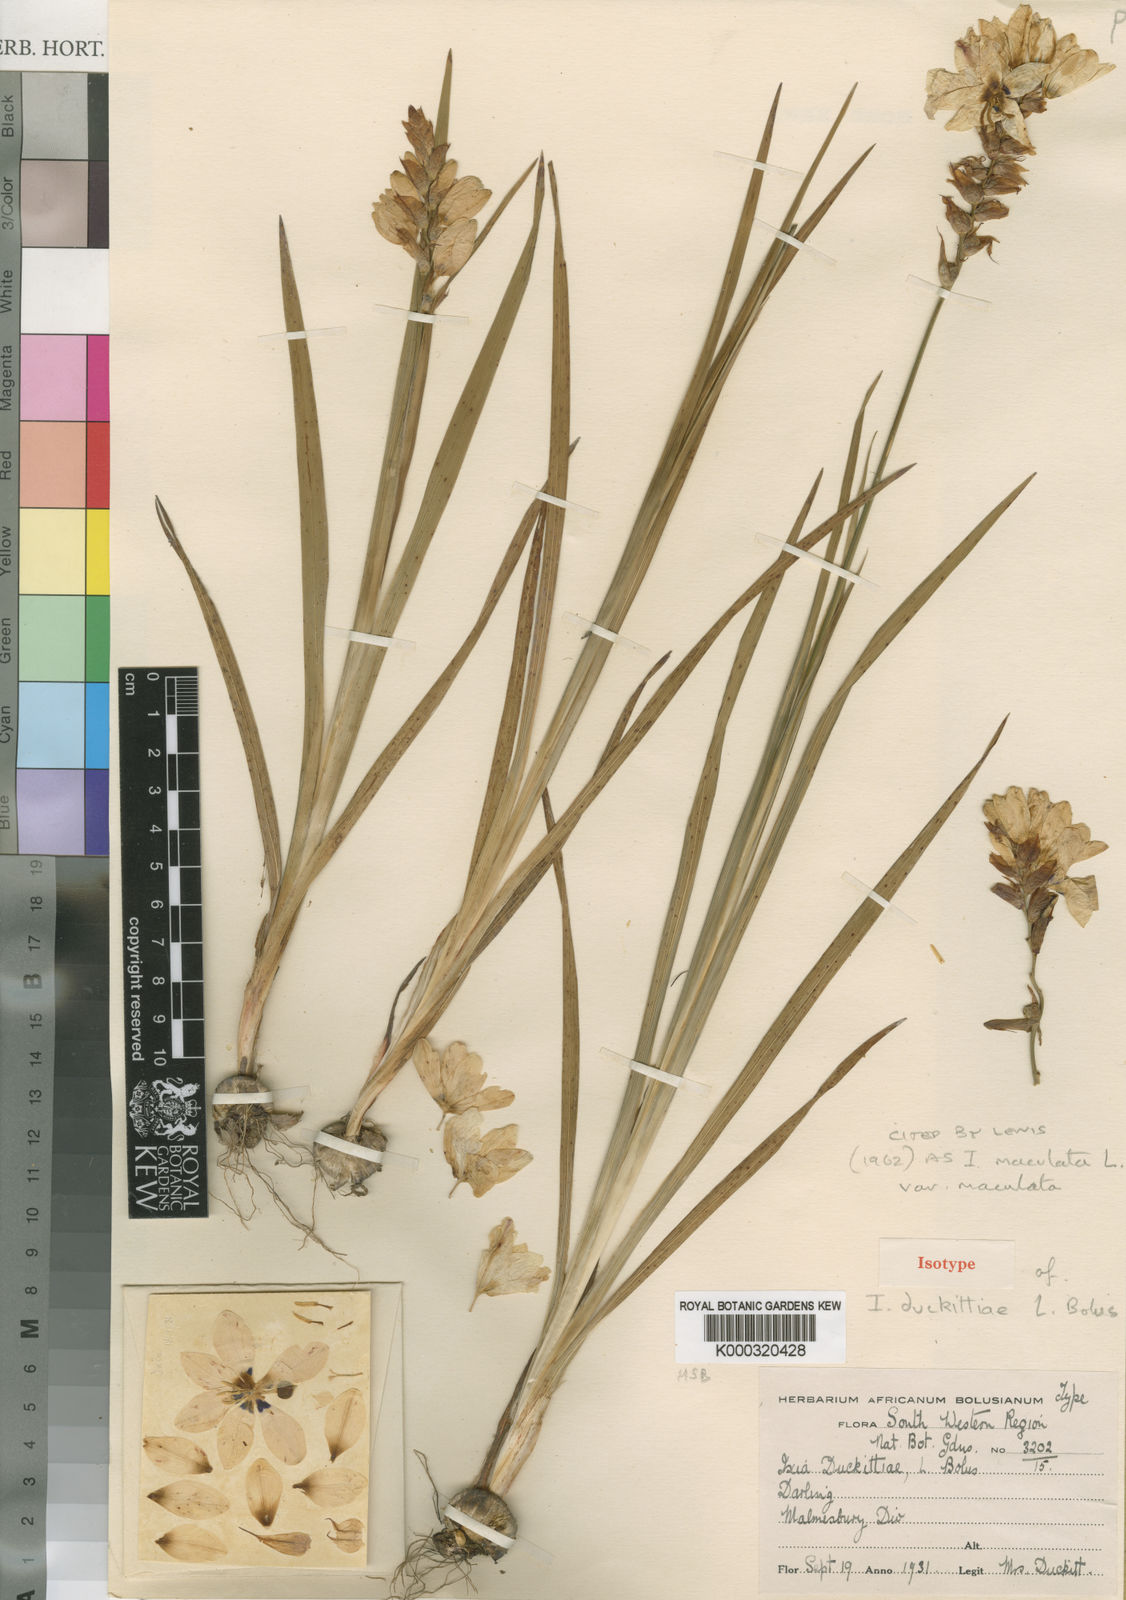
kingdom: Plantae
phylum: Tracheophyta
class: Liliopsida
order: Asparagales
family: Iridaceae
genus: Ixia
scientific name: Ixia maculata
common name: Spotted african cornlily
